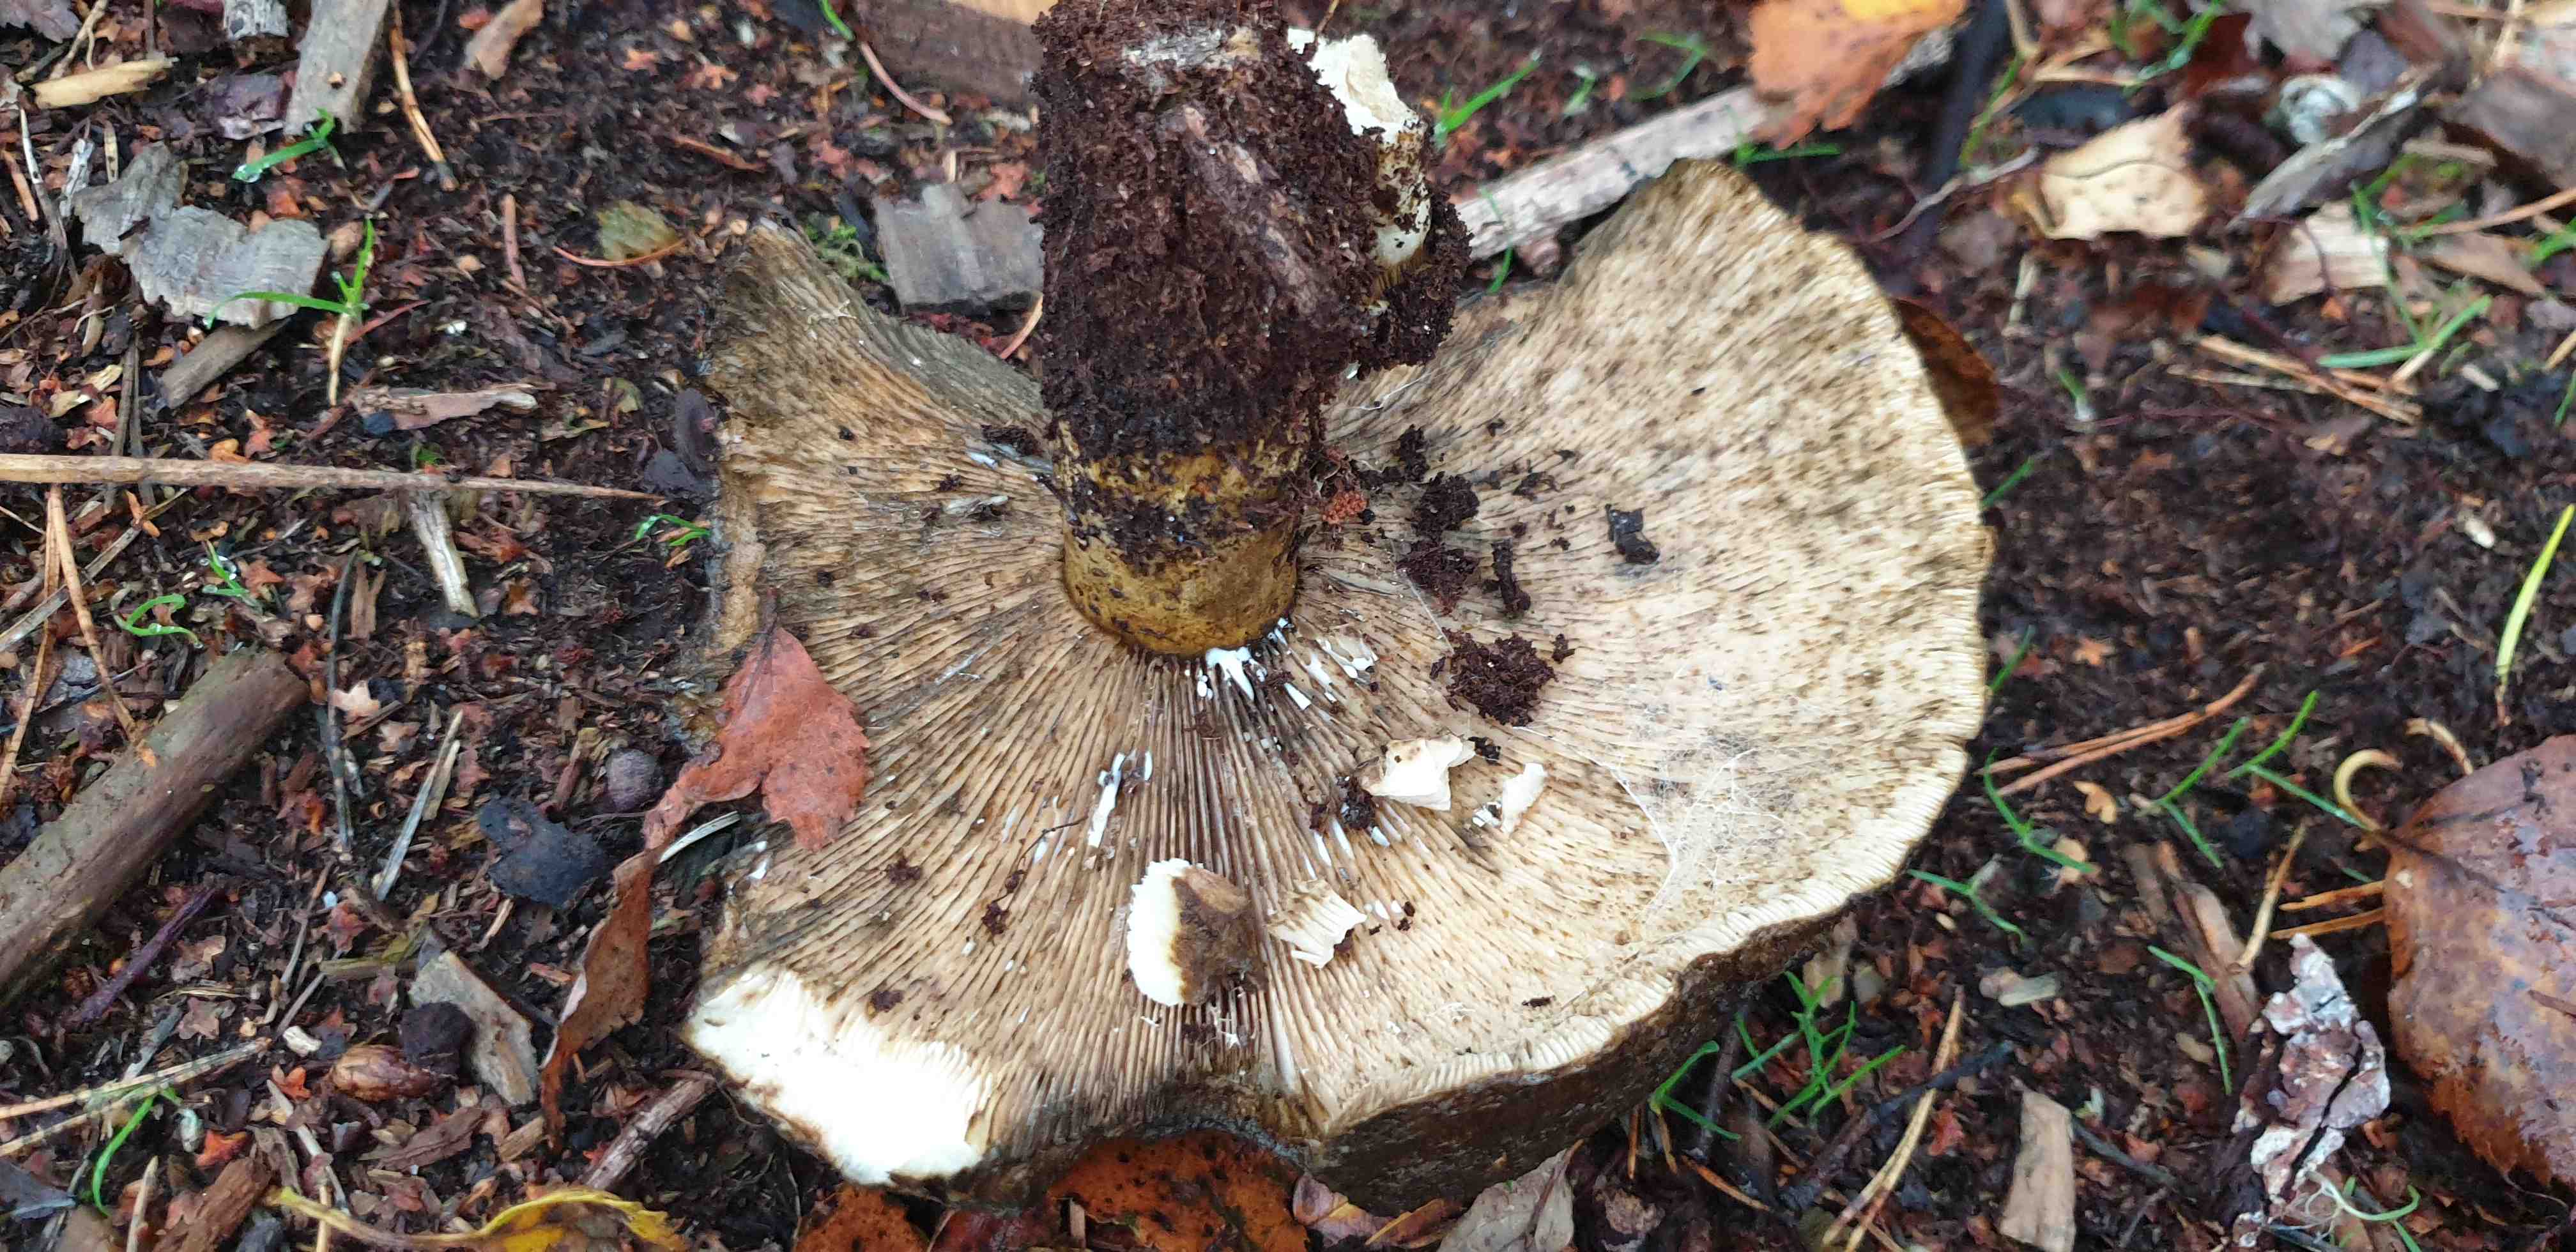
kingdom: Fungi
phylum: Basidiomycota
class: Agaricomycetes
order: Russulales
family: Russulaceae
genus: Lactarius
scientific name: Lactarius necator
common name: manddraber-mælkehat
